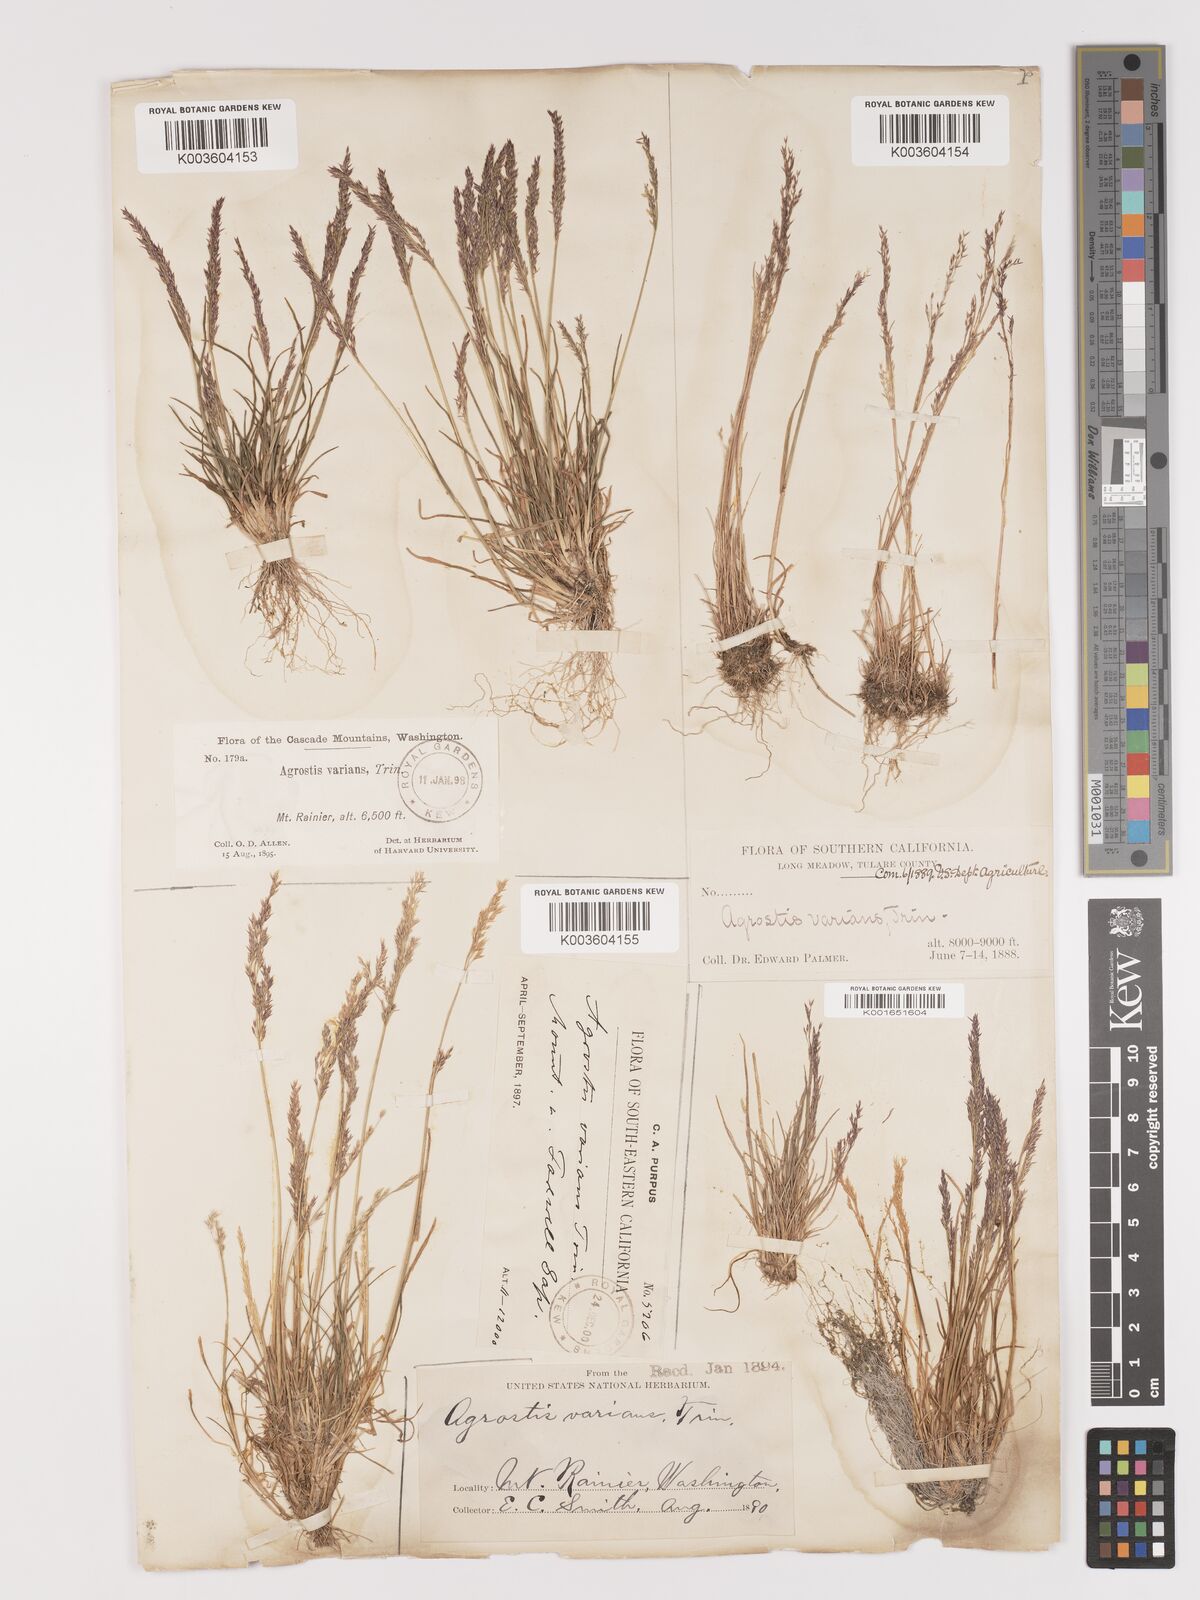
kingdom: Plantae
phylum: Tracheophyta
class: Liliopsida
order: Poales
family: Poaceae
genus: Agrostis
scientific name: Agrostis rossiae
